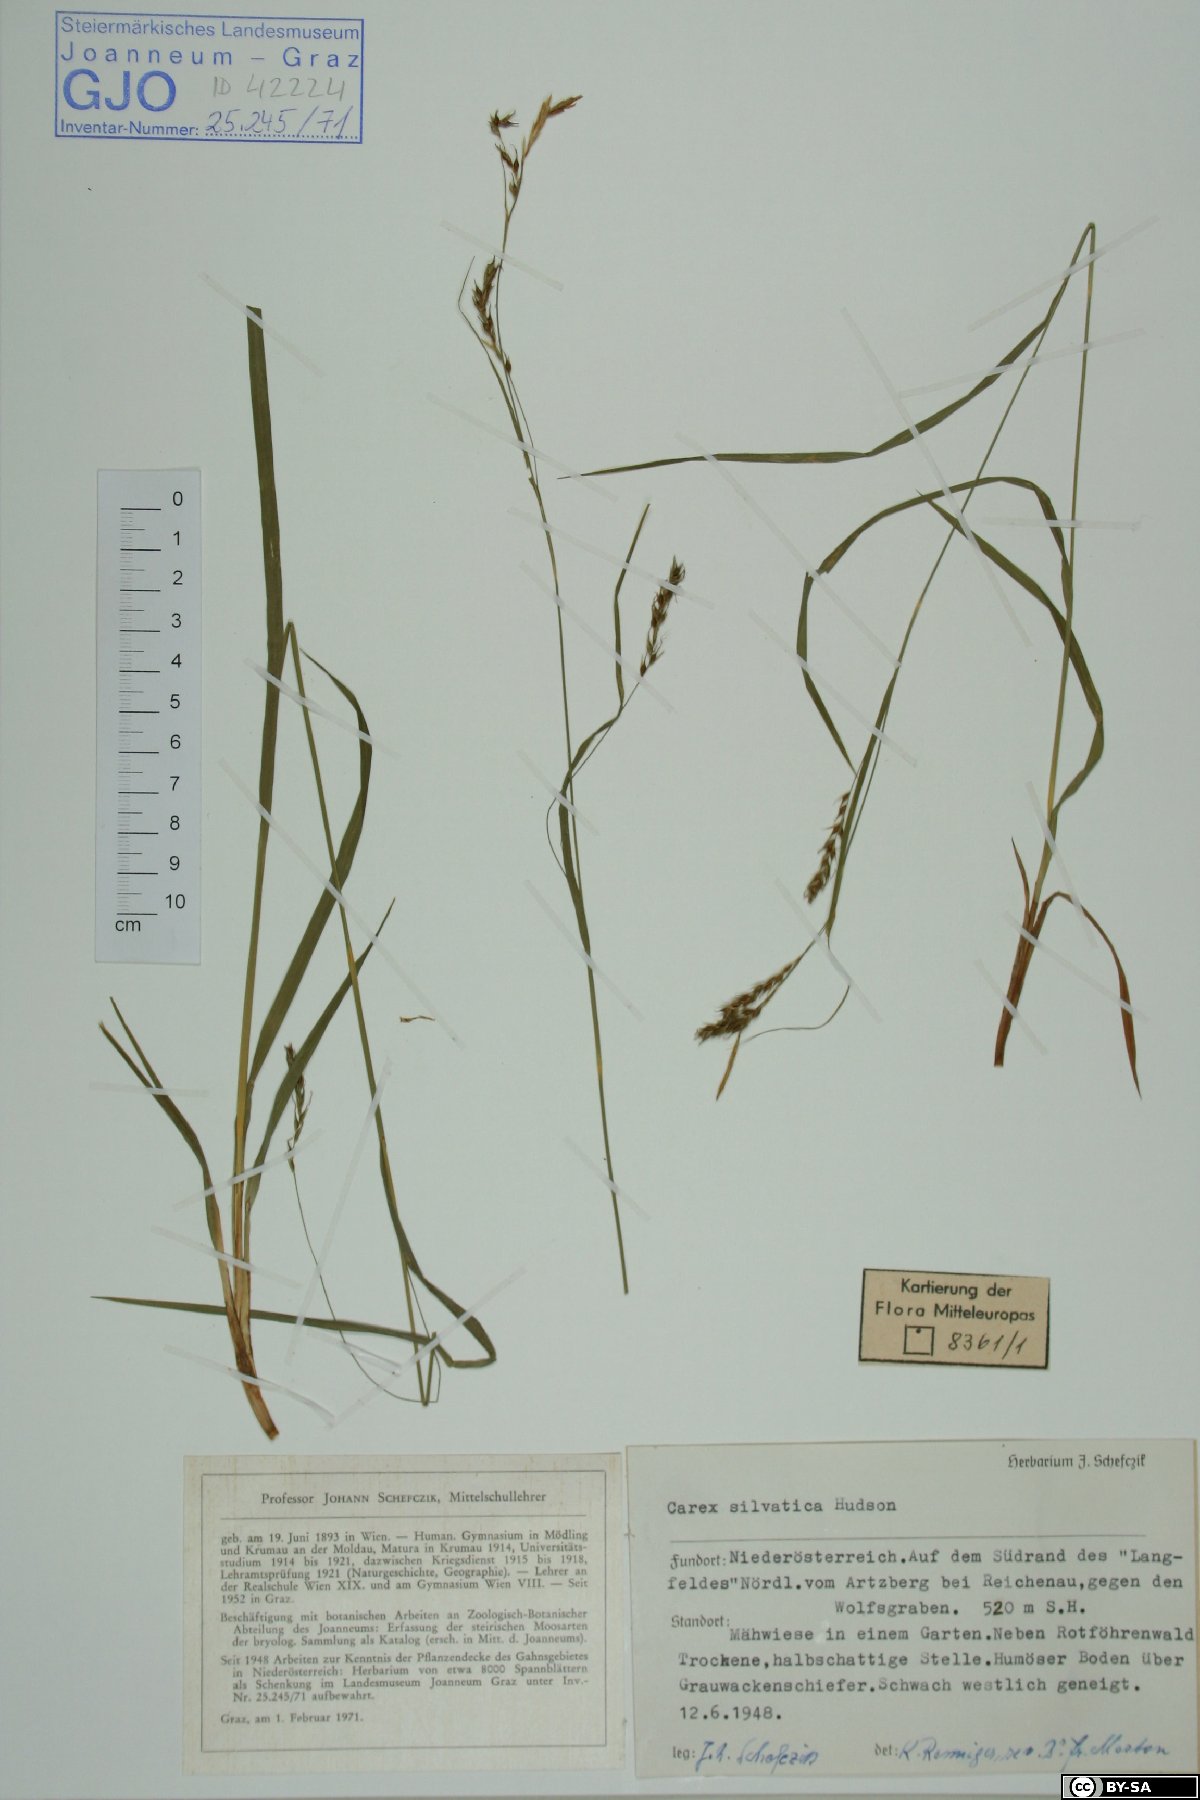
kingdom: Plantae
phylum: Tracheophyta
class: Liliopsida
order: Poales
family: Cyperaceae
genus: Carex
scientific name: Carex sylvatica
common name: Wood-sedge
